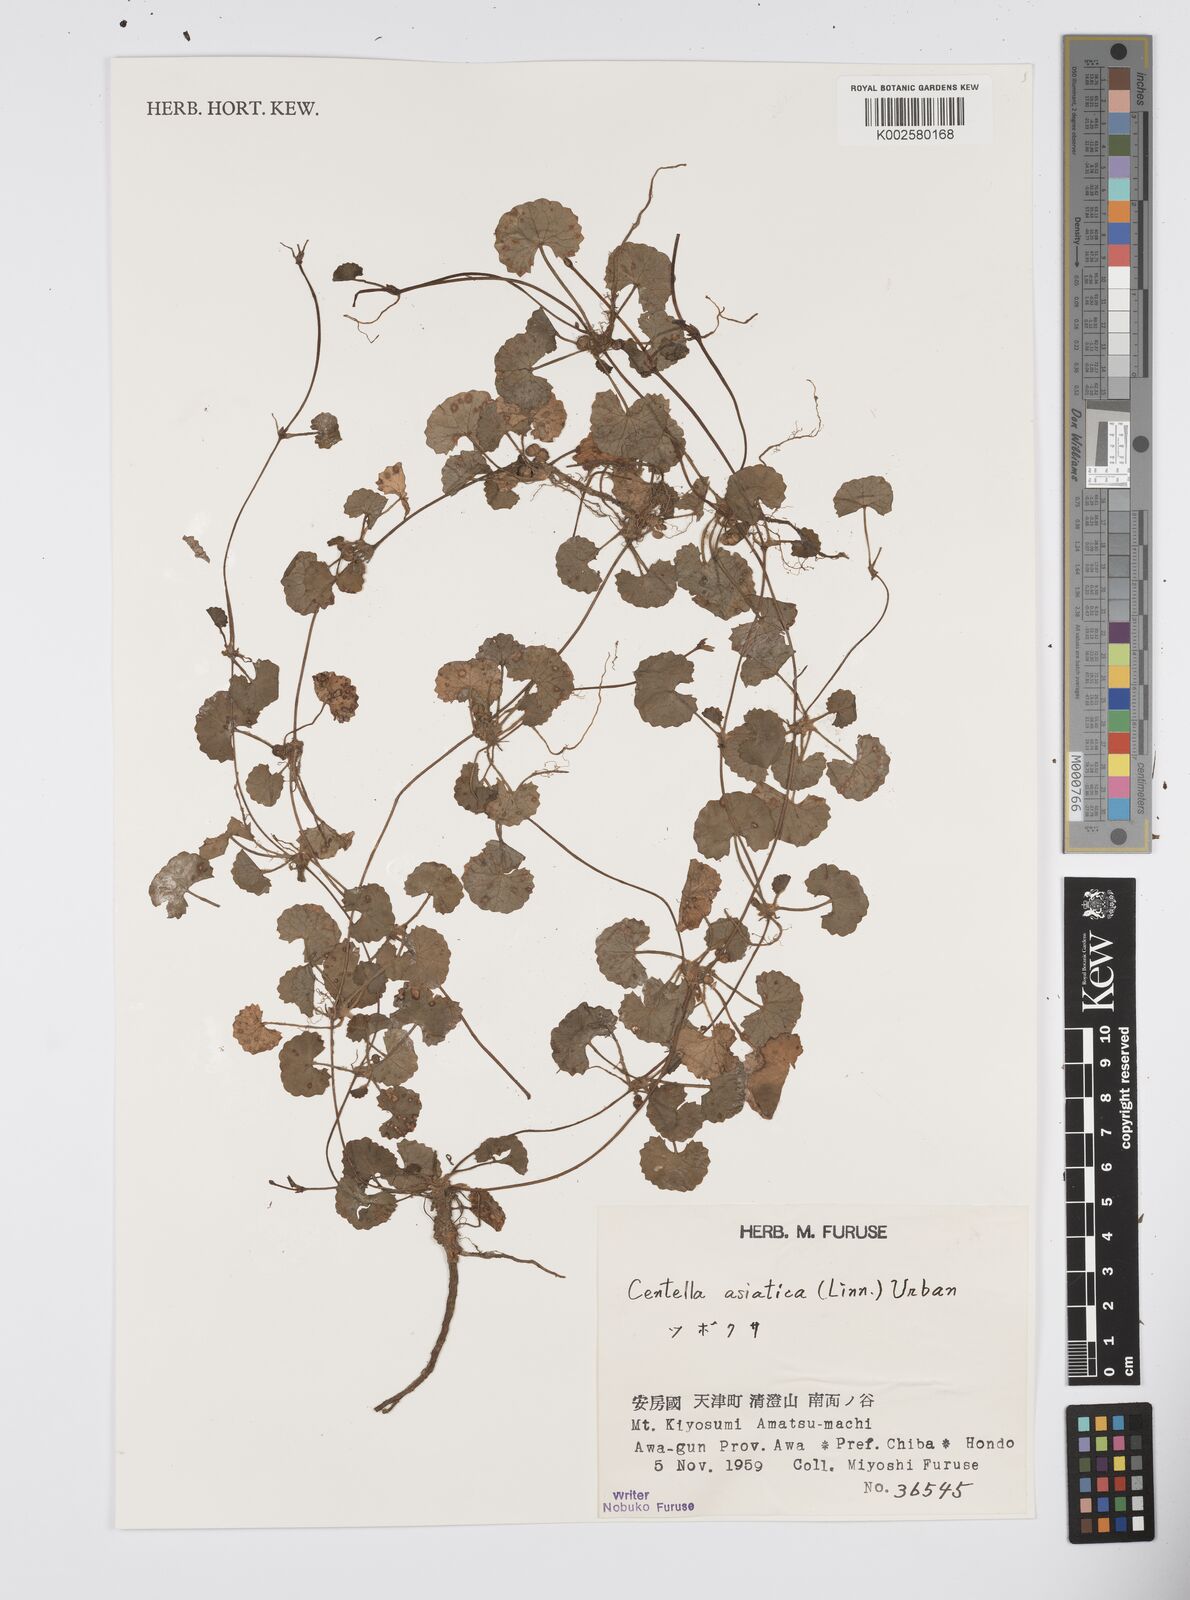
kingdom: Plantae
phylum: Tracheophyta
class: Magnoliopsida
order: Apiales
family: Apiaceae
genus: Centella
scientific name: Centella asiatica
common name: Spadeleaf
